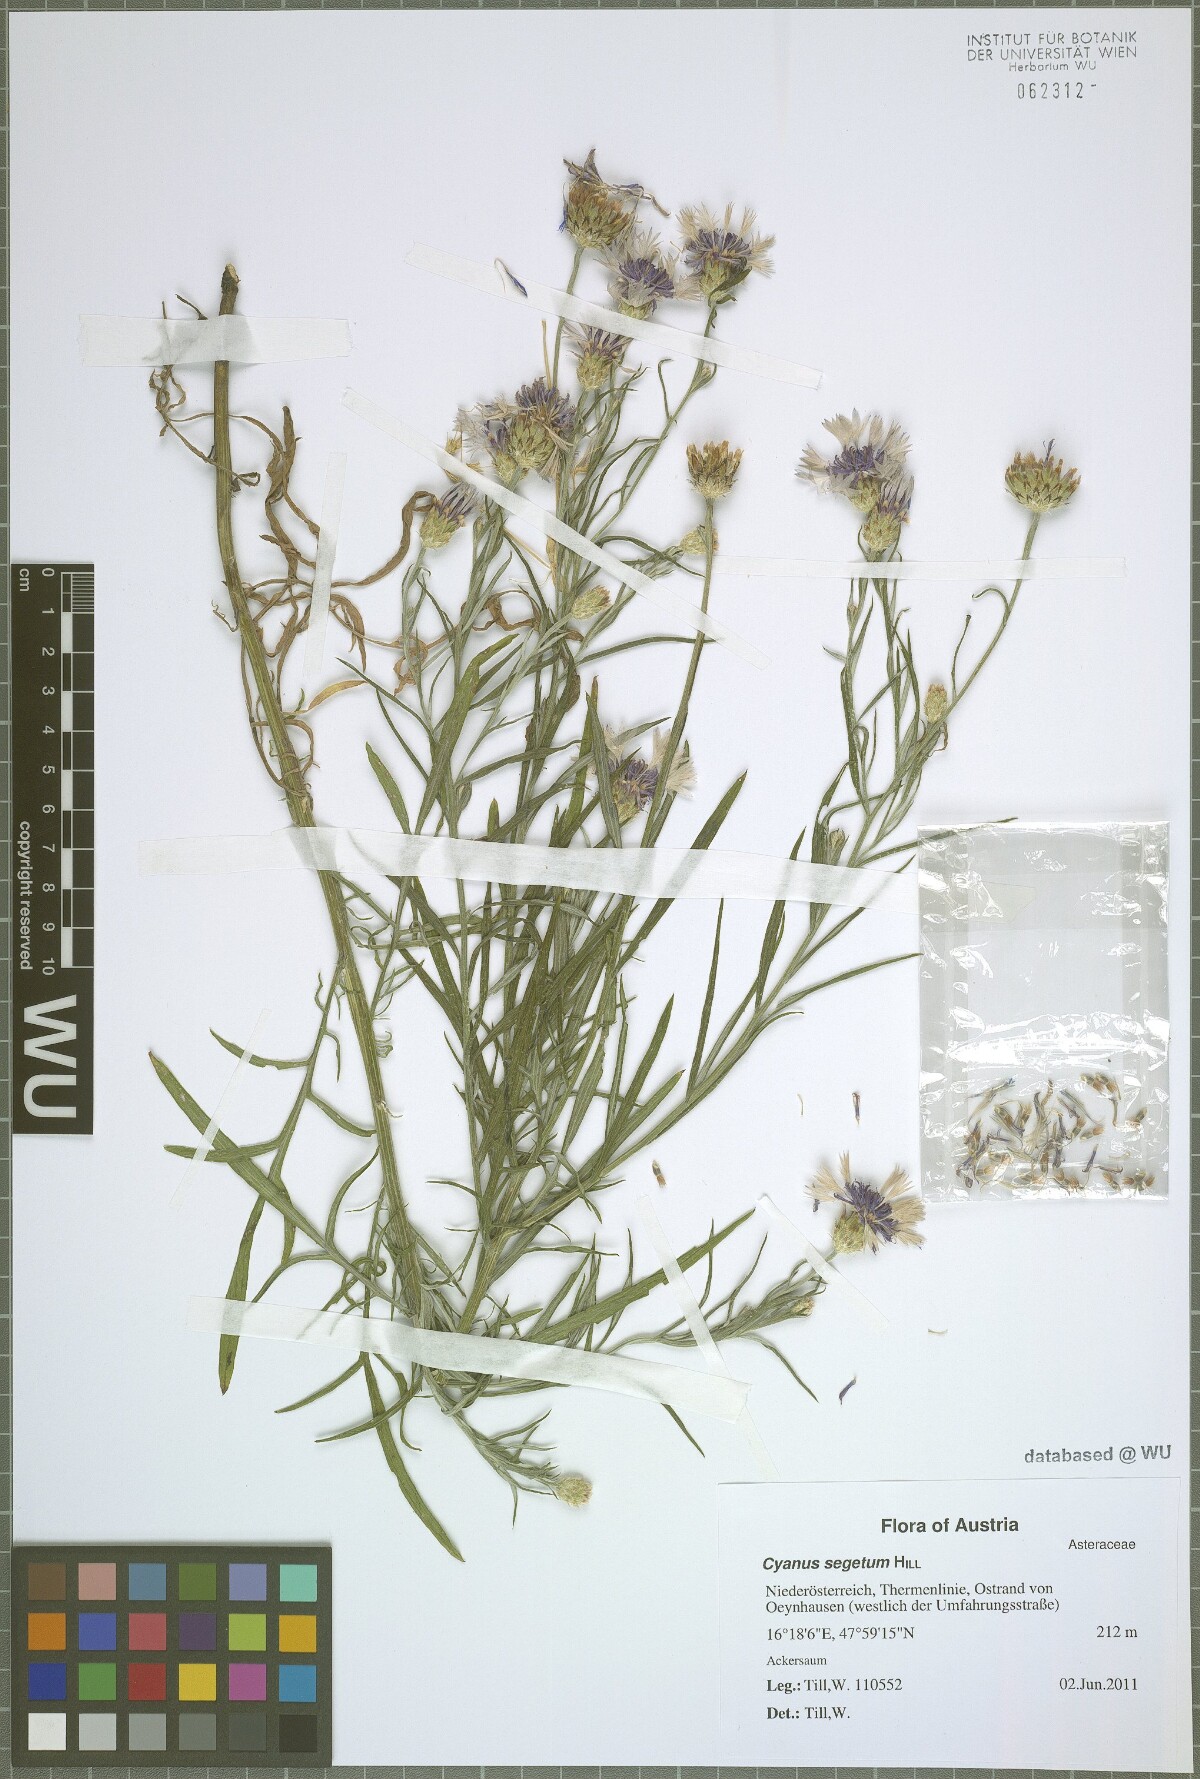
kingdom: Plantae
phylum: Tracheophyta
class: Magnoliopsida
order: Asterales
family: Asteraceae
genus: Centaurea
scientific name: Centaurea cyanus
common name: Cornflower
